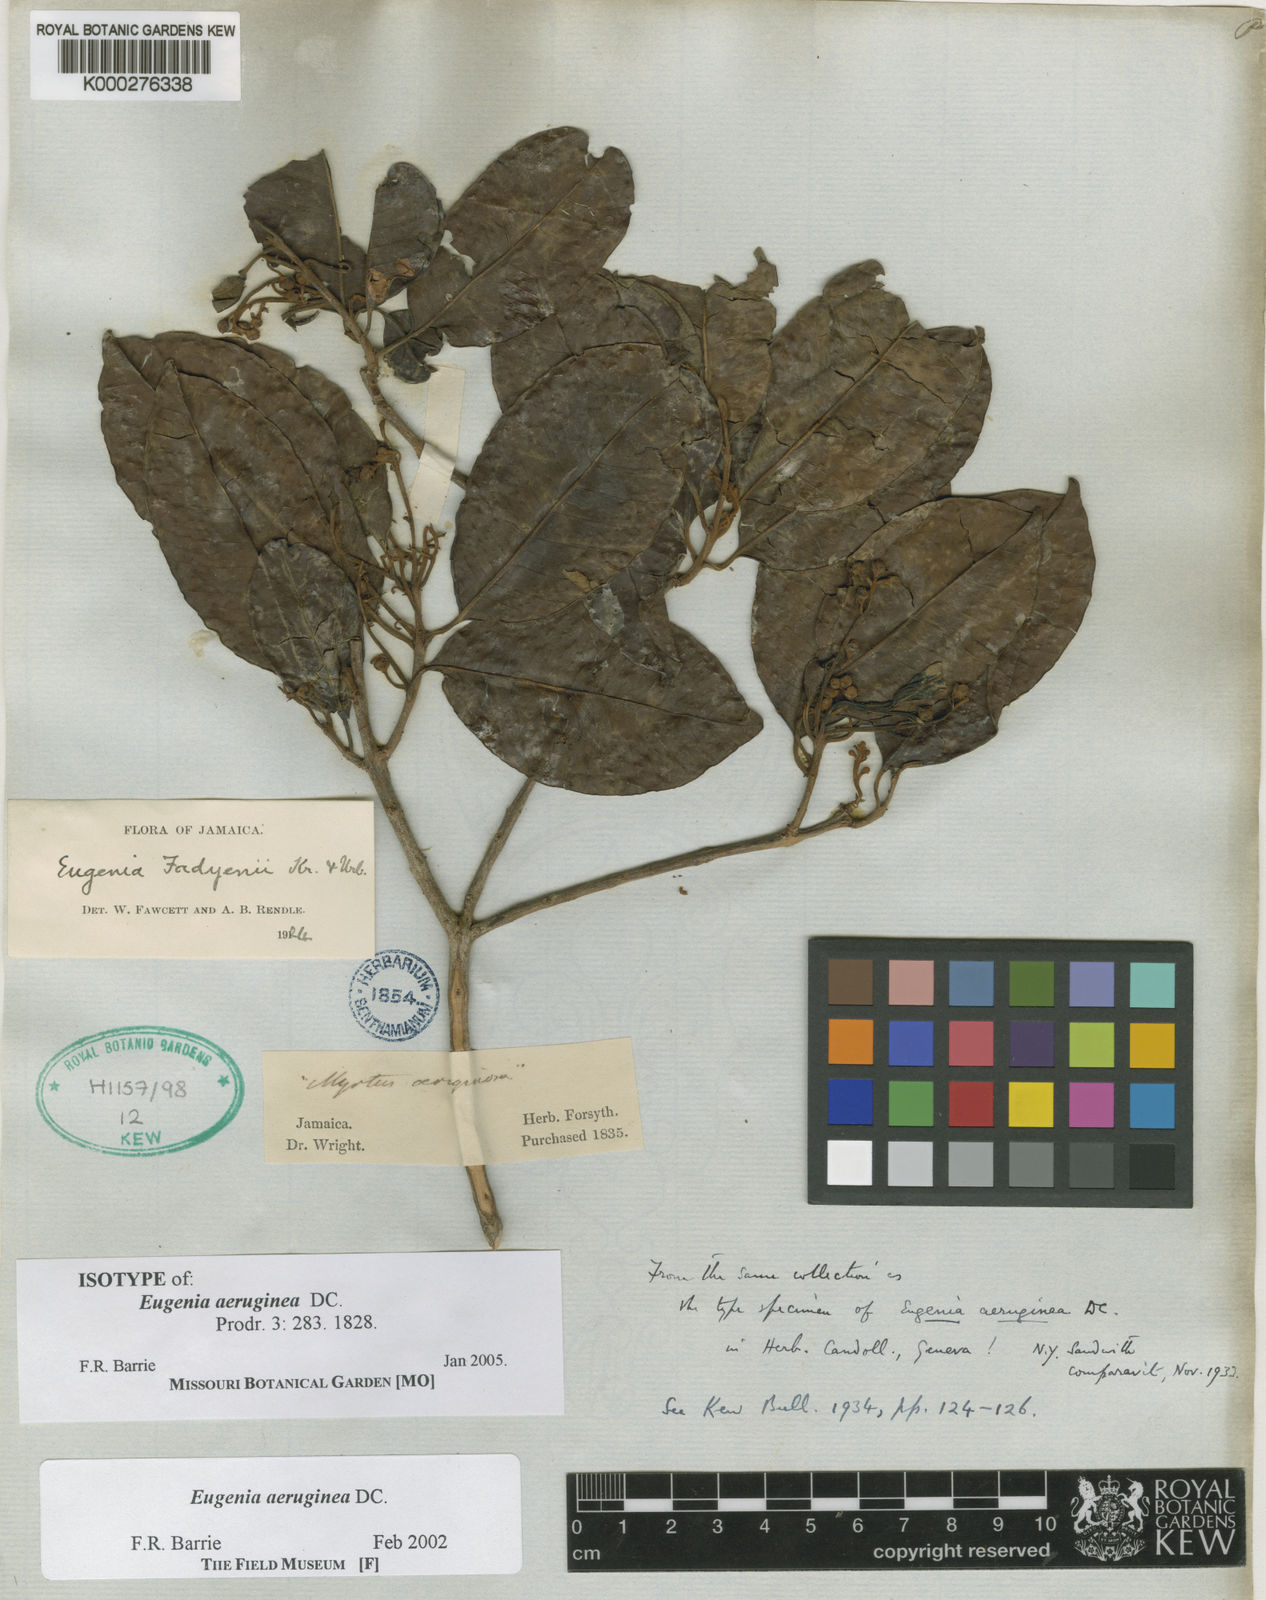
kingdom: Plantae
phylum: Tracheophyta
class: Magnoliopsida
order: Myrtales
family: Myrtaceae
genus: Eugenia
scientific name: Eugenia aeruginea
